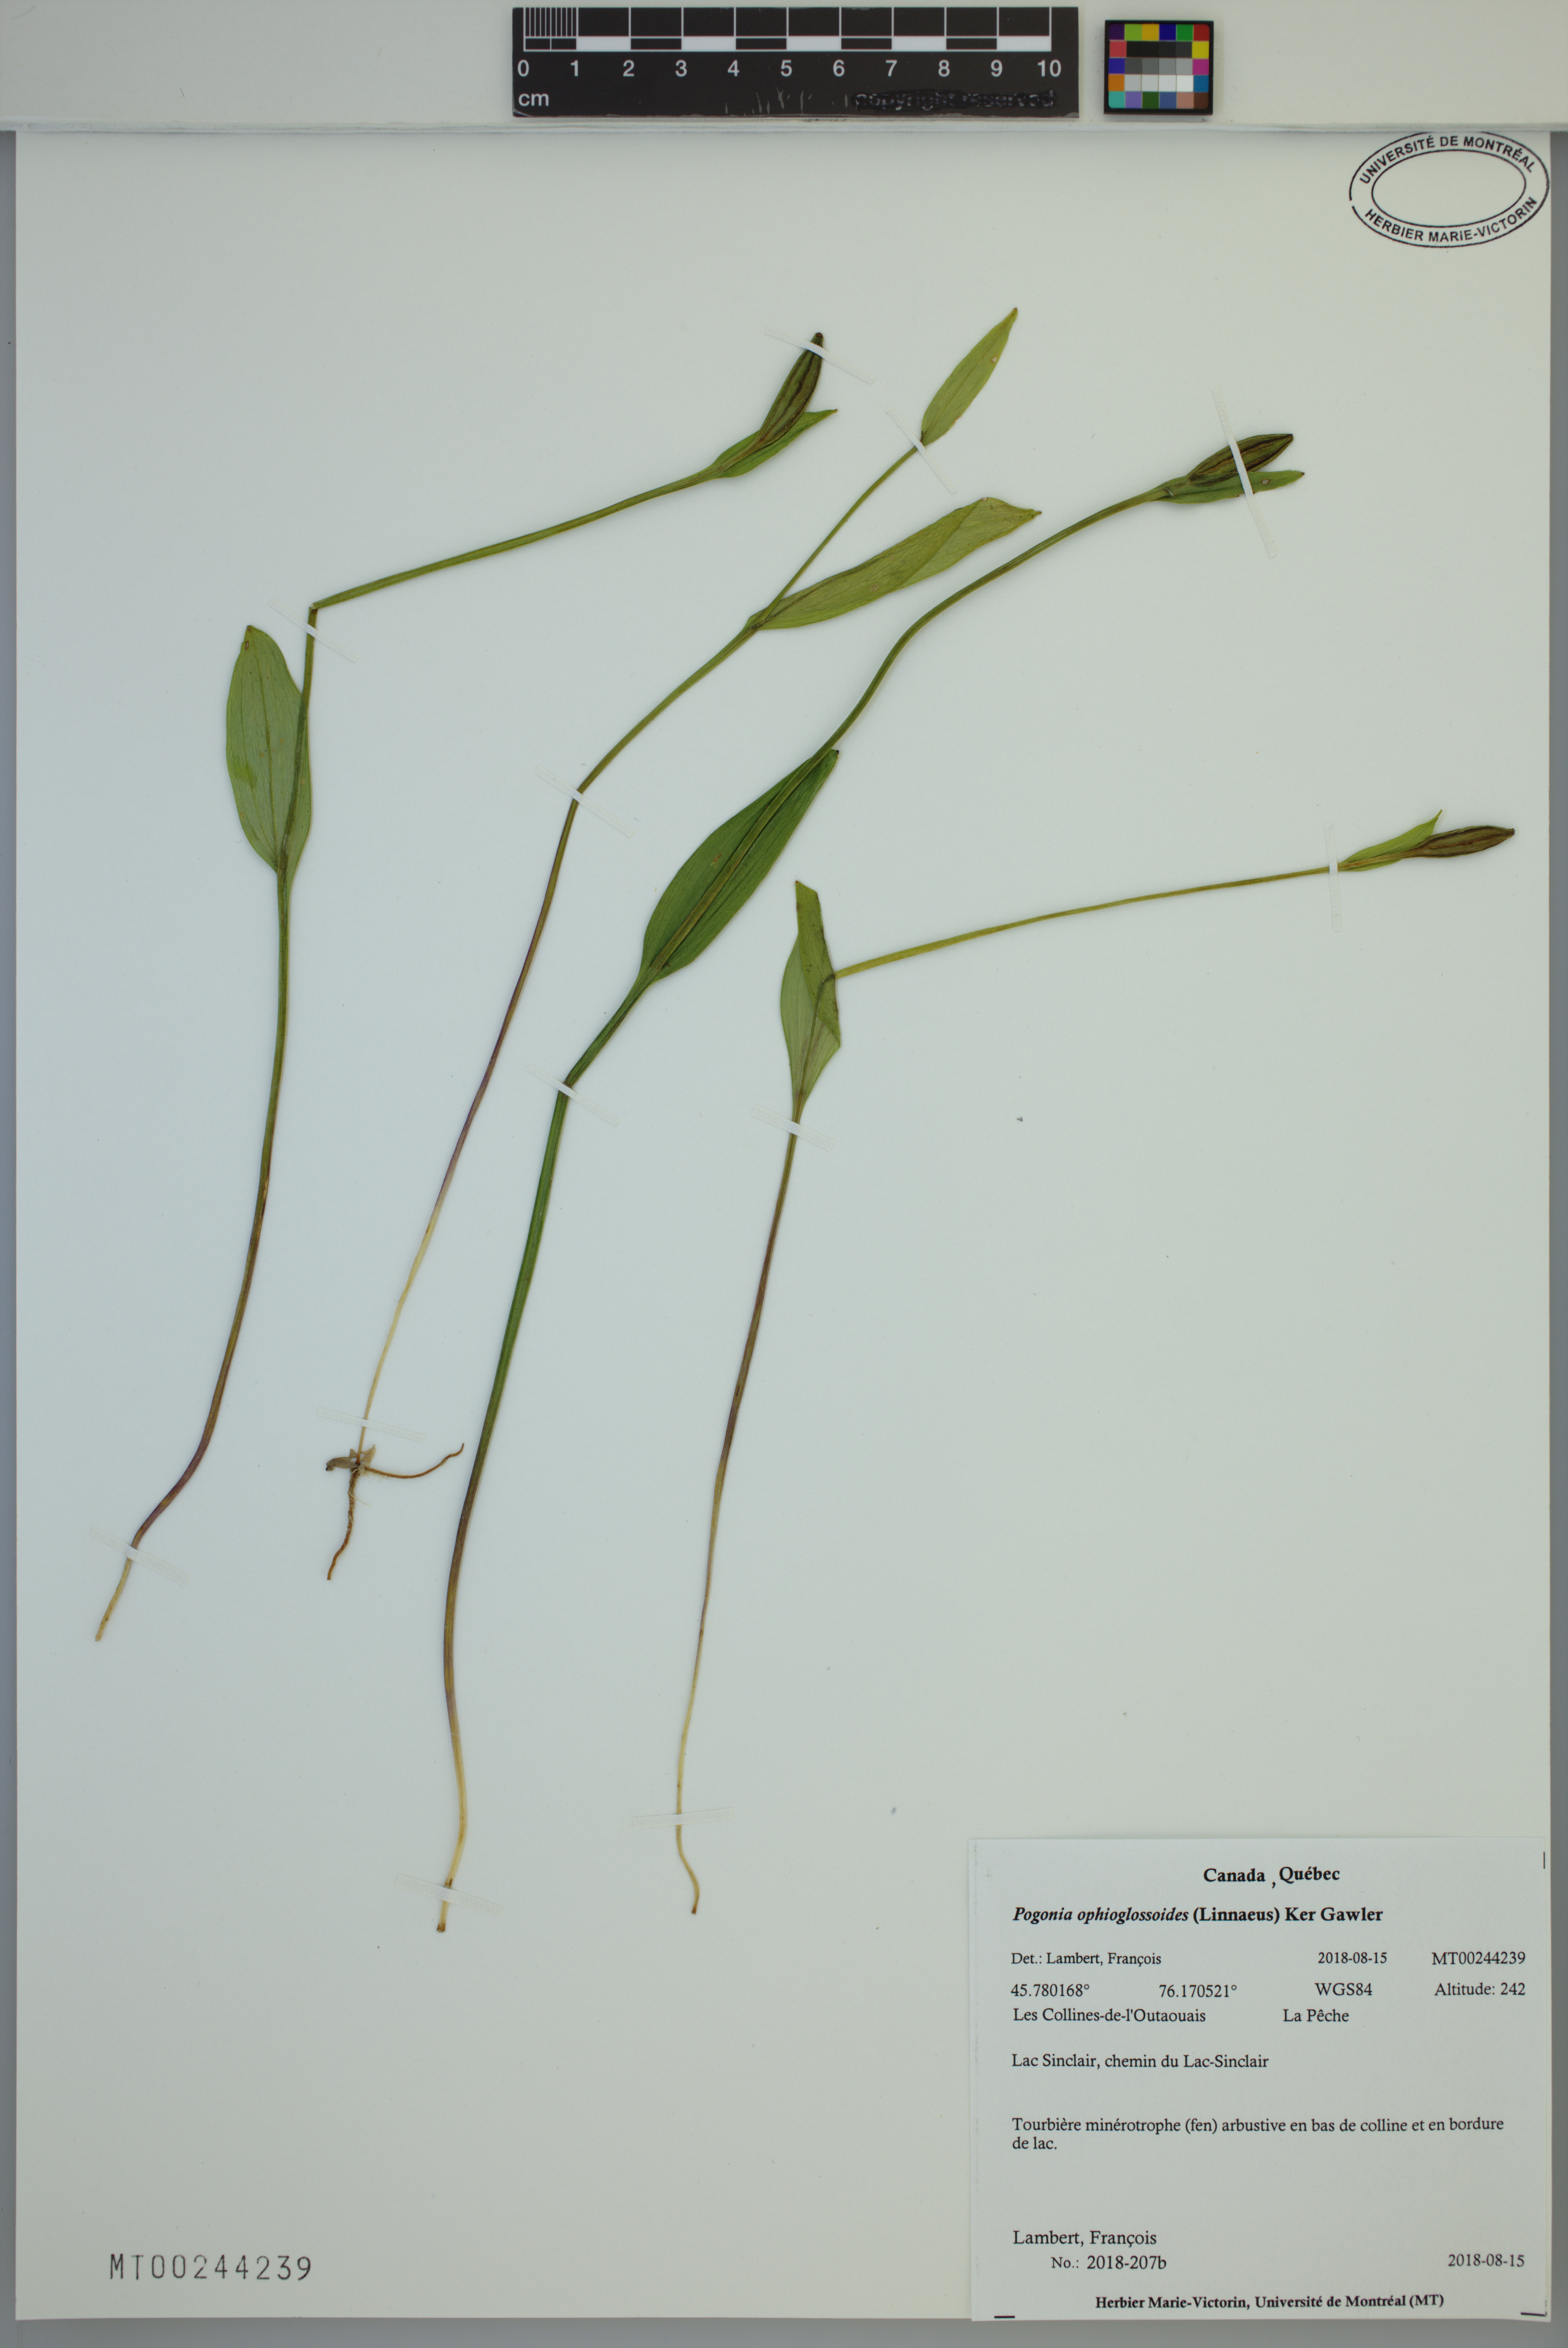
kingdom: Plantae
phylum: Tracheophyta
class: Liliopsida
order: Asparagales
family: Orchidaceae
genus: Pogonia
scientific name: Pogonia ophioglossoides
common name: Rose pogonia
